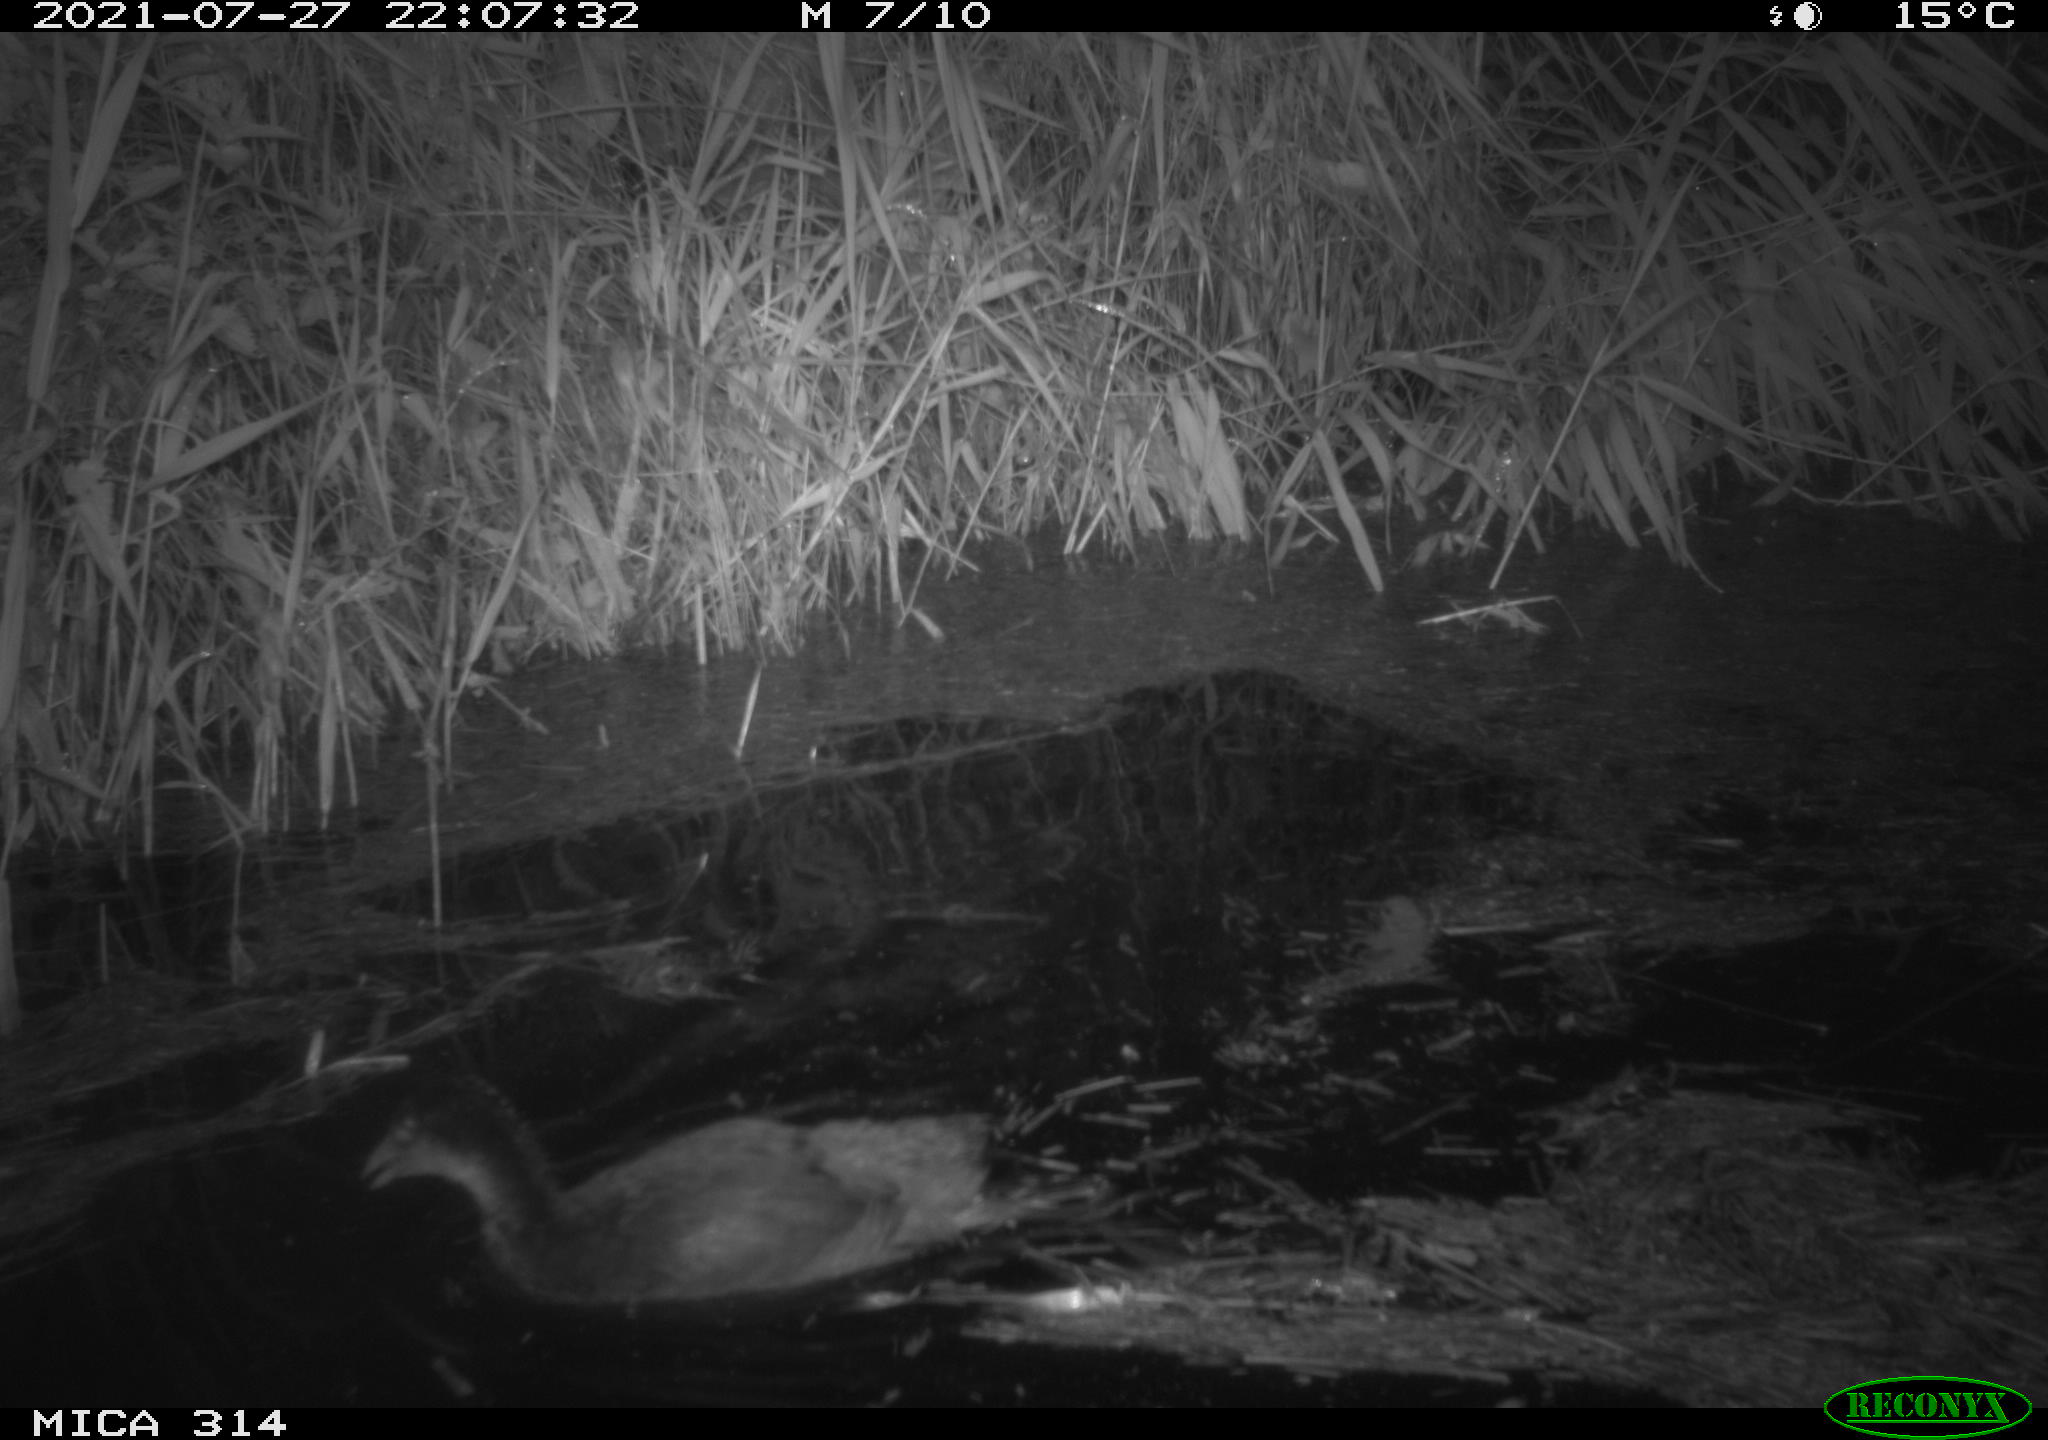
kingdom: Animalia
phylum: Chordata
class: Aves
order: Gruiformes
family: Rallidae
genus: Gallinula
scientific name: Gallinula chloropus
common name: Common moorhen
